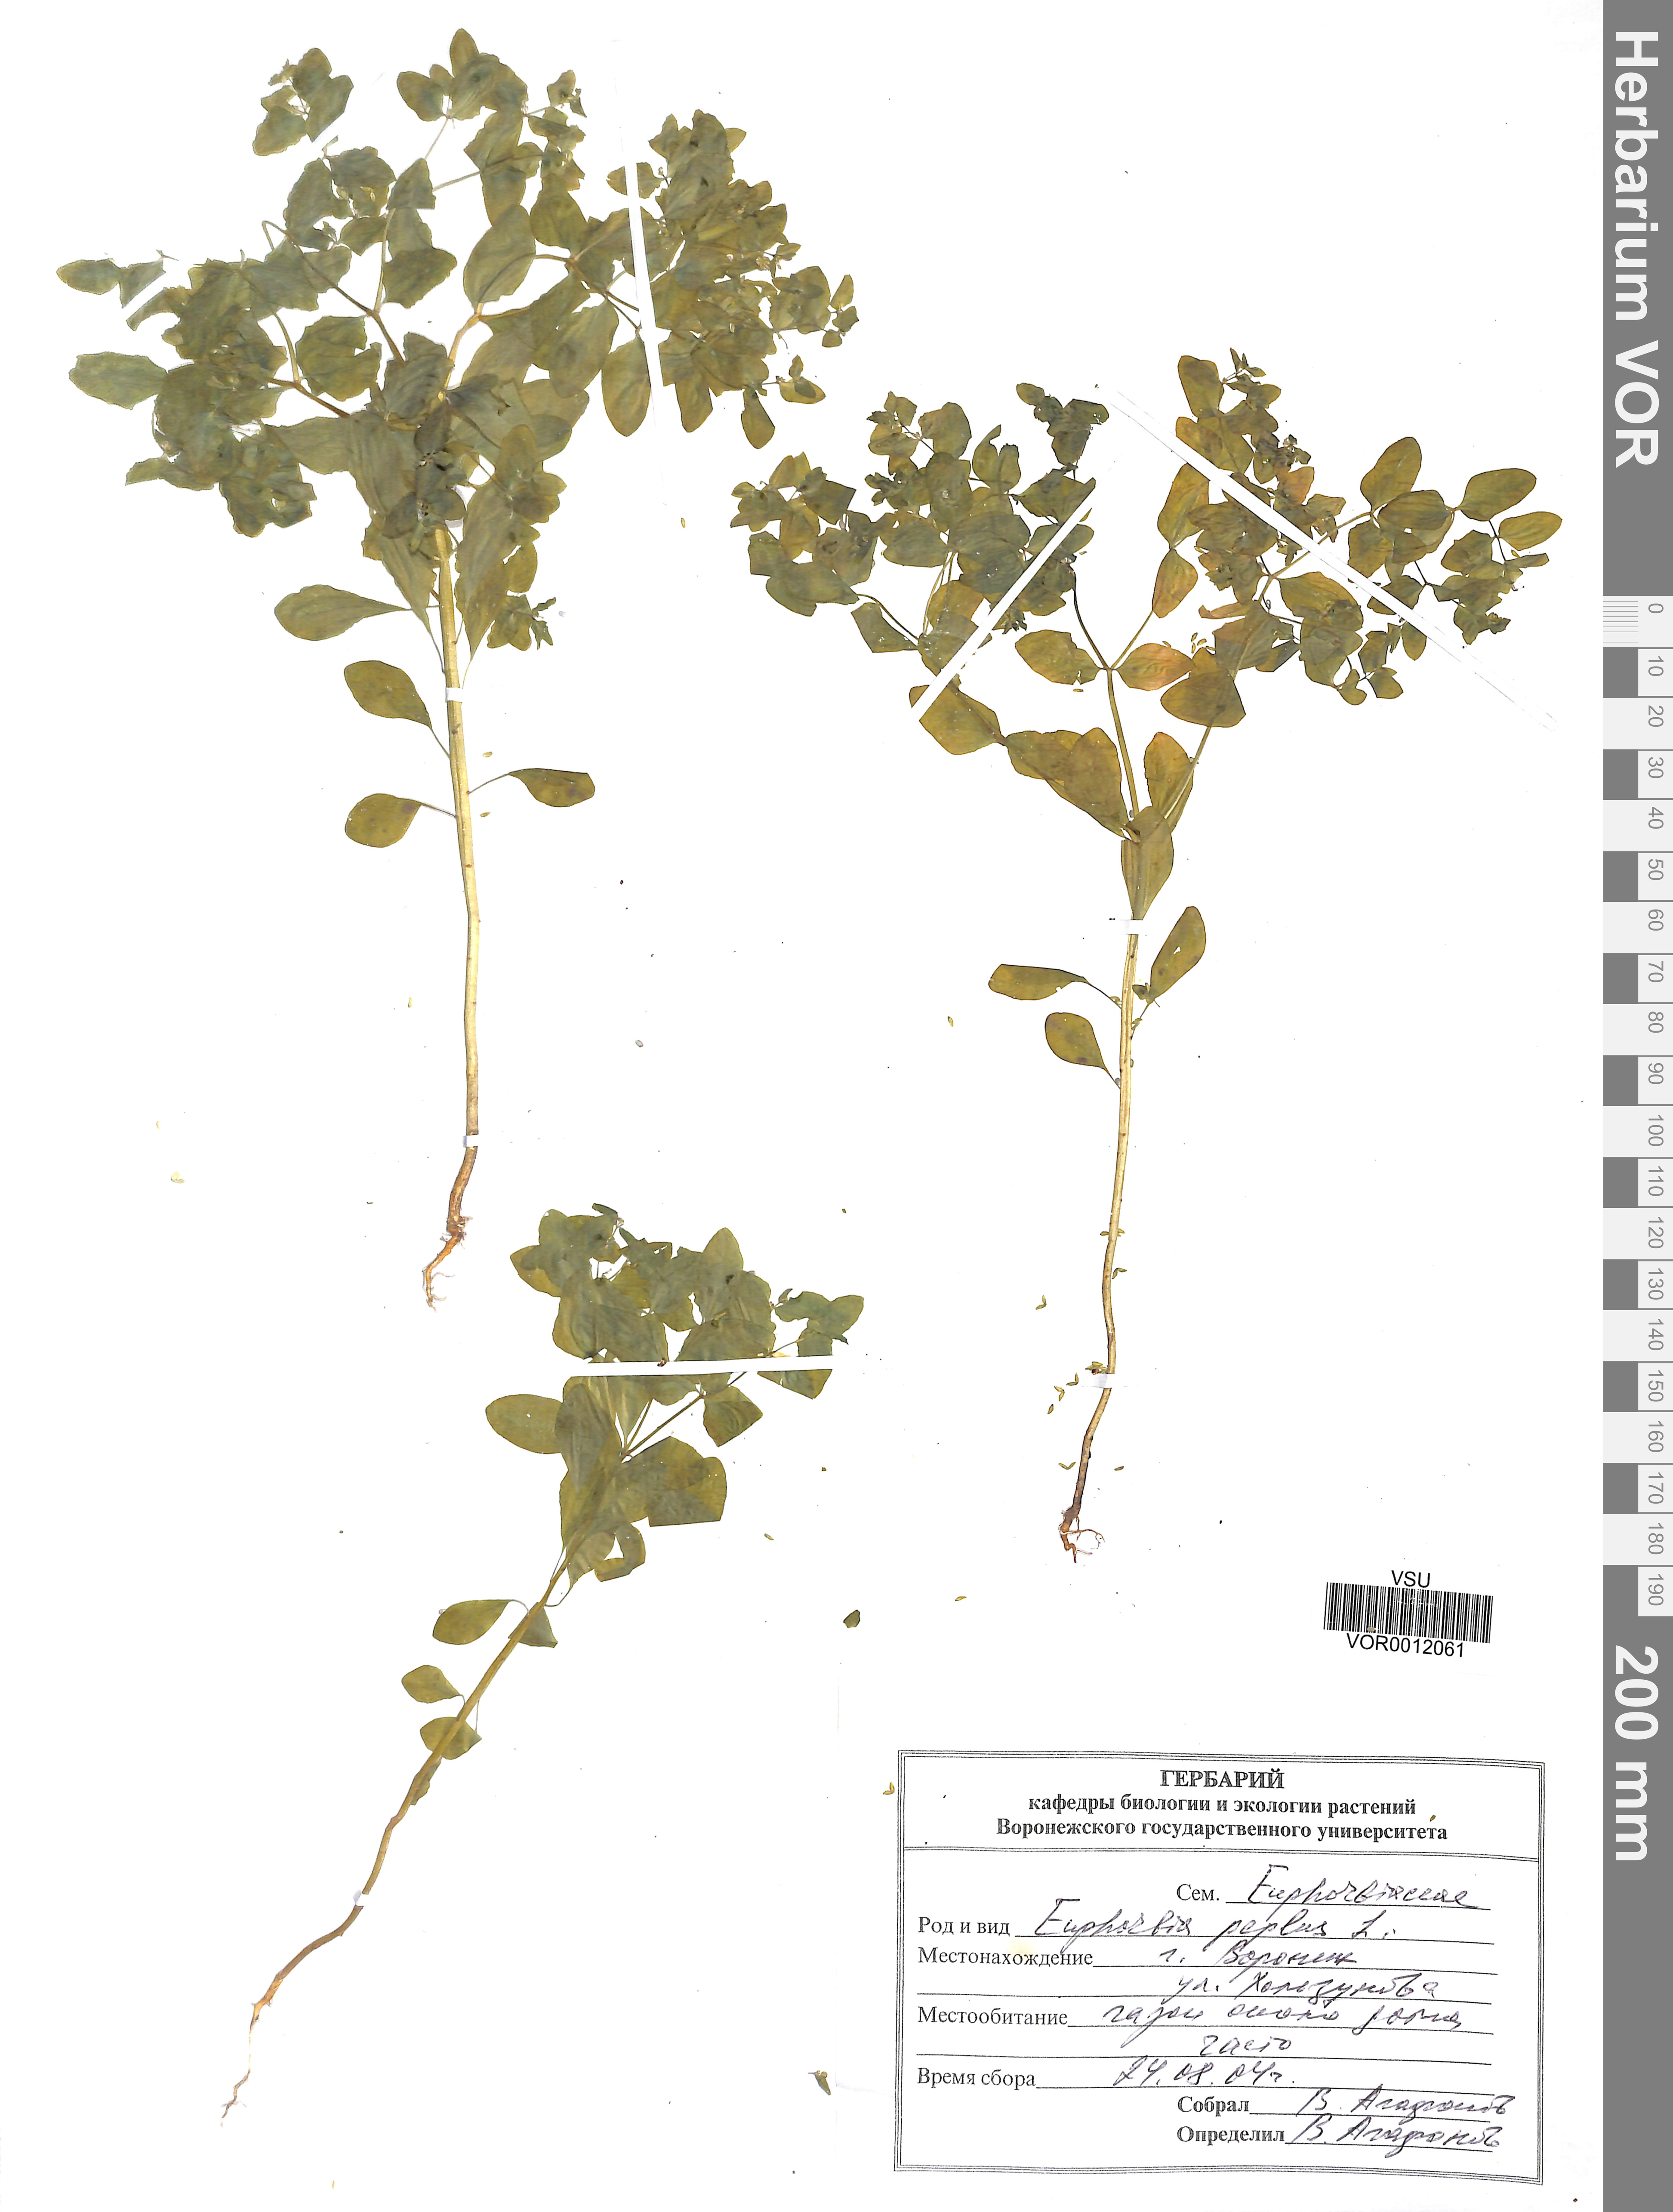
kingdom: Plantae
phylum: Tracheophyta
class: Magnoliopsida
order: Malpighiales
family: Euphorbiaceae
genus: Euphorbia
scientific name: Euphorbia peplus
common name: Petty spurge
